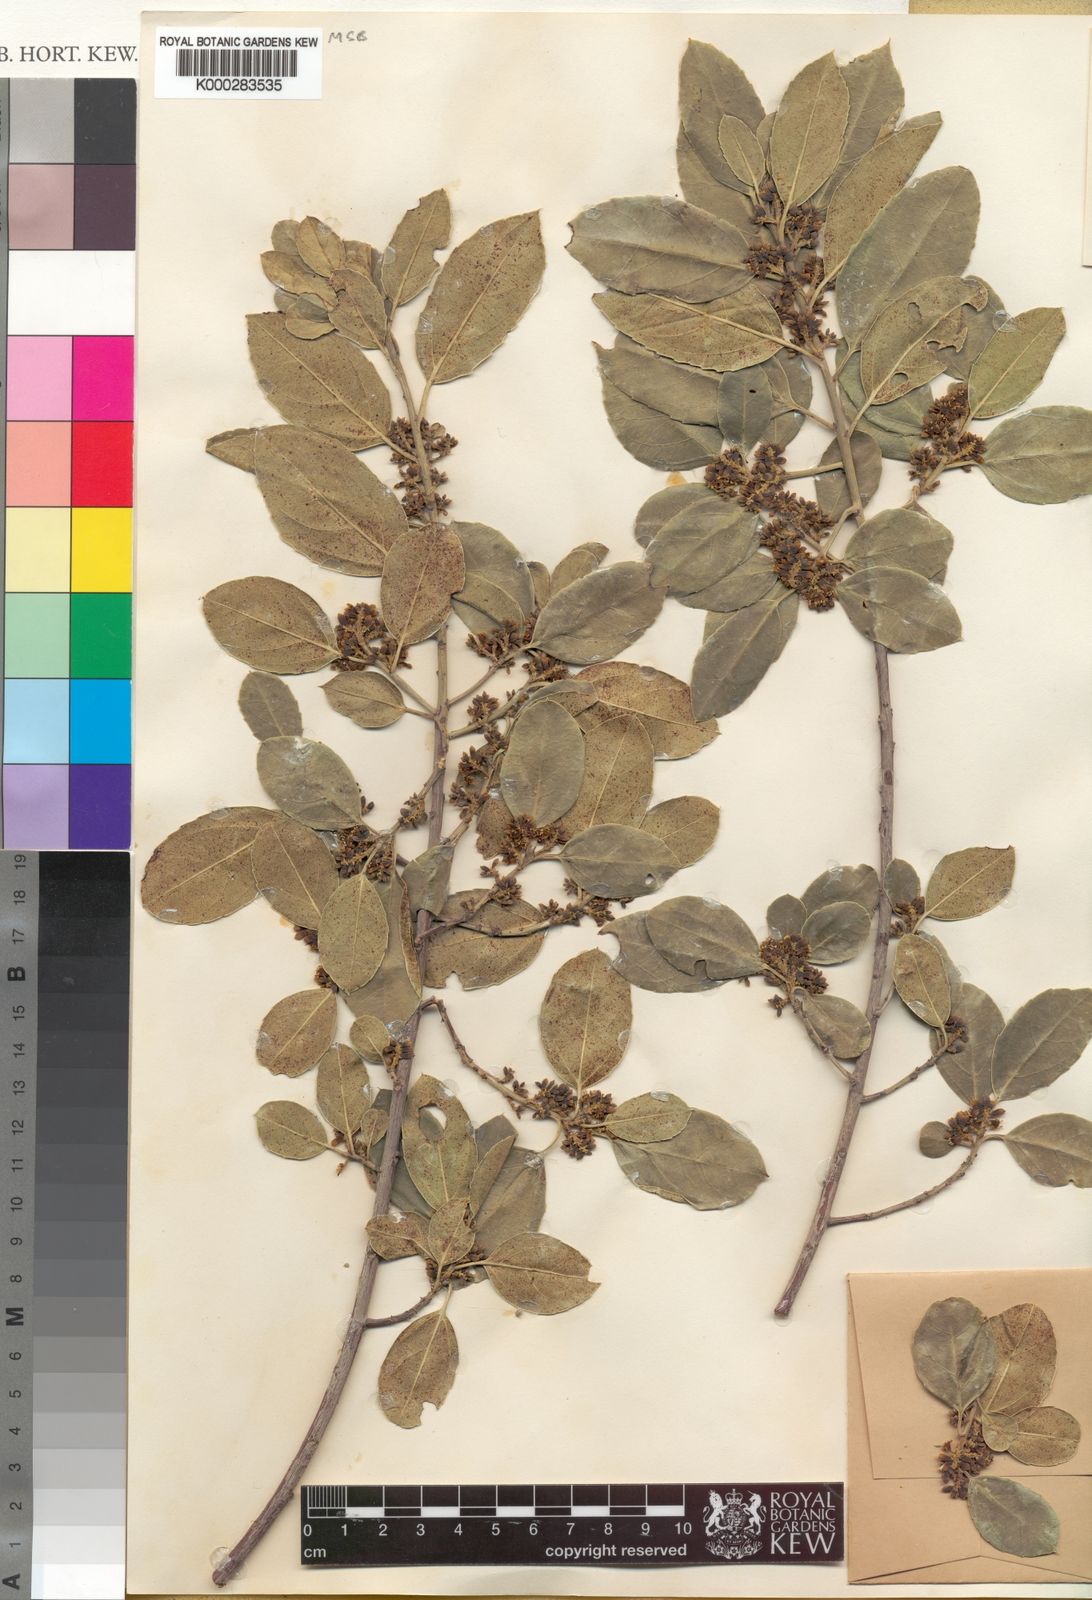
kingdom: Plantae
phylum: Tracheophyta
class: Magnoliopsida
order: Rosales
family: Rhamnaceae
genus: Rhamnus
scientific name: Rhamnus alaternus
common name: Mediterranean buckthorn
